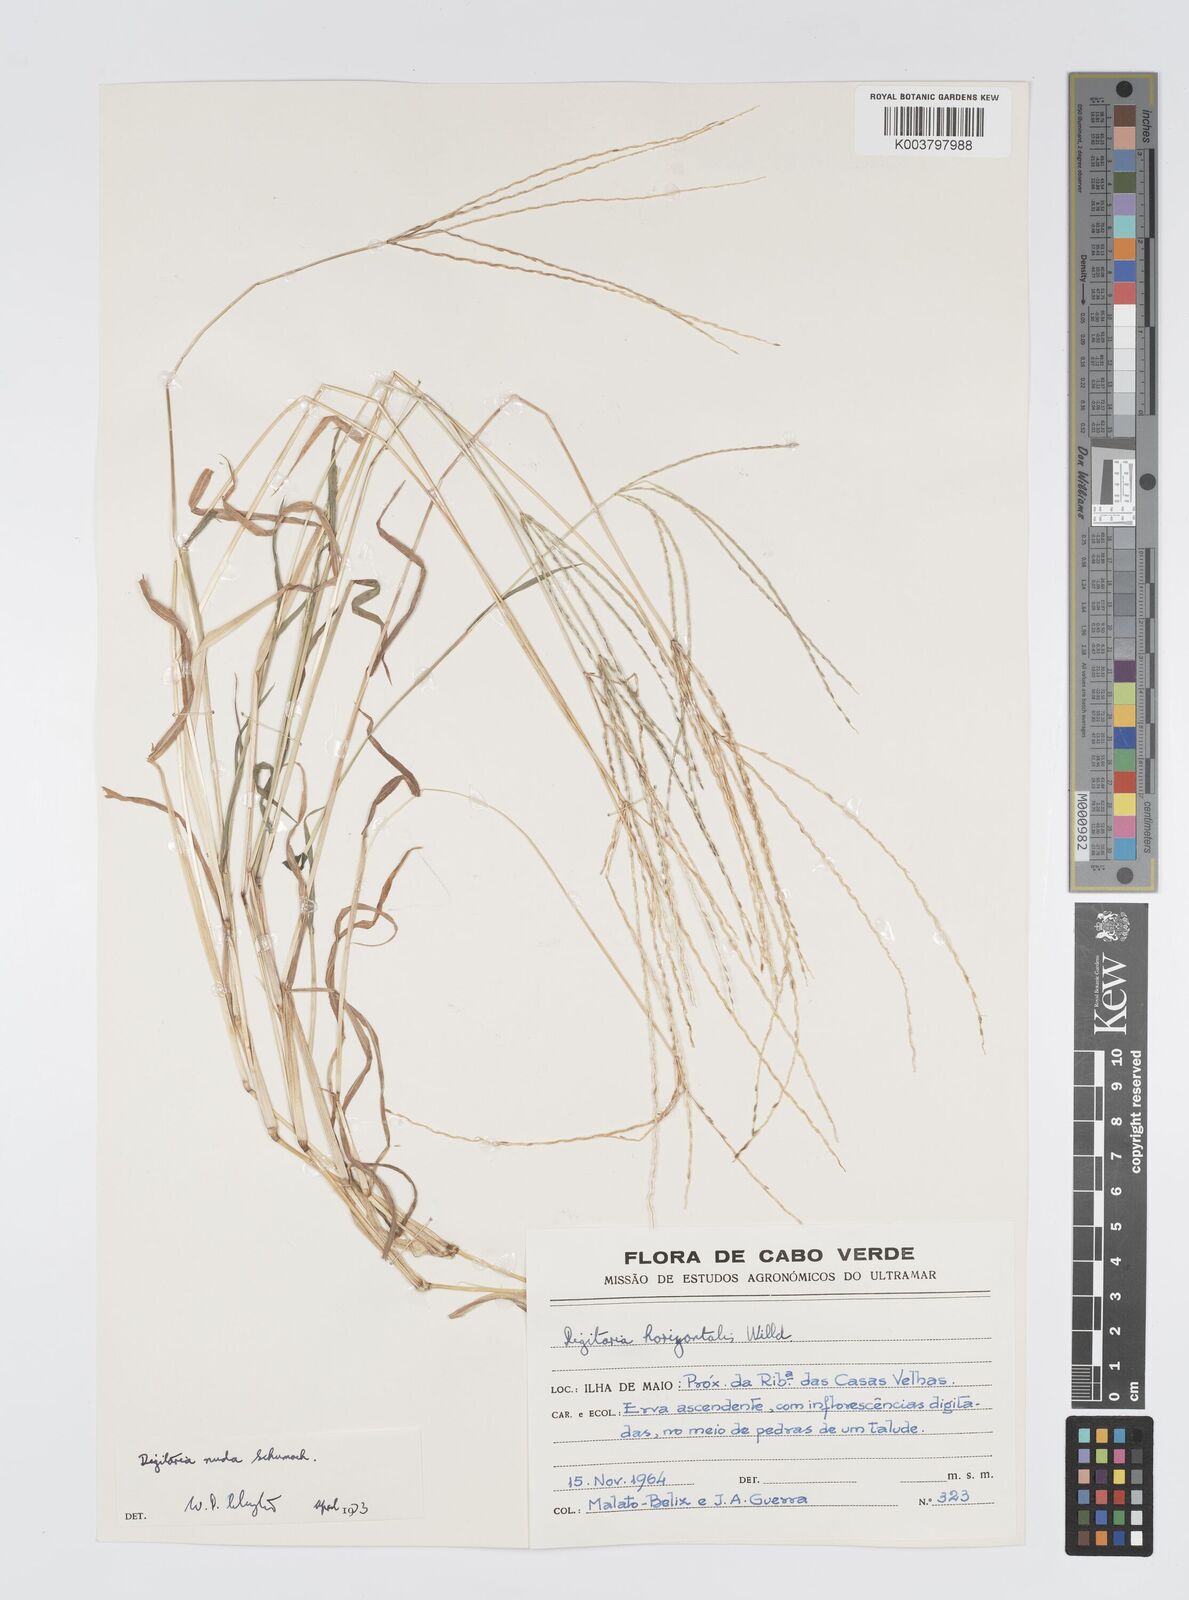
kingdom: Plantae
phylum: Tracheophyta
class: Liliopsida
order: Poales
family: Poaceae
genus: Digitaria
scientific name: Digitaria nuda
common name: Naked crabgrass
